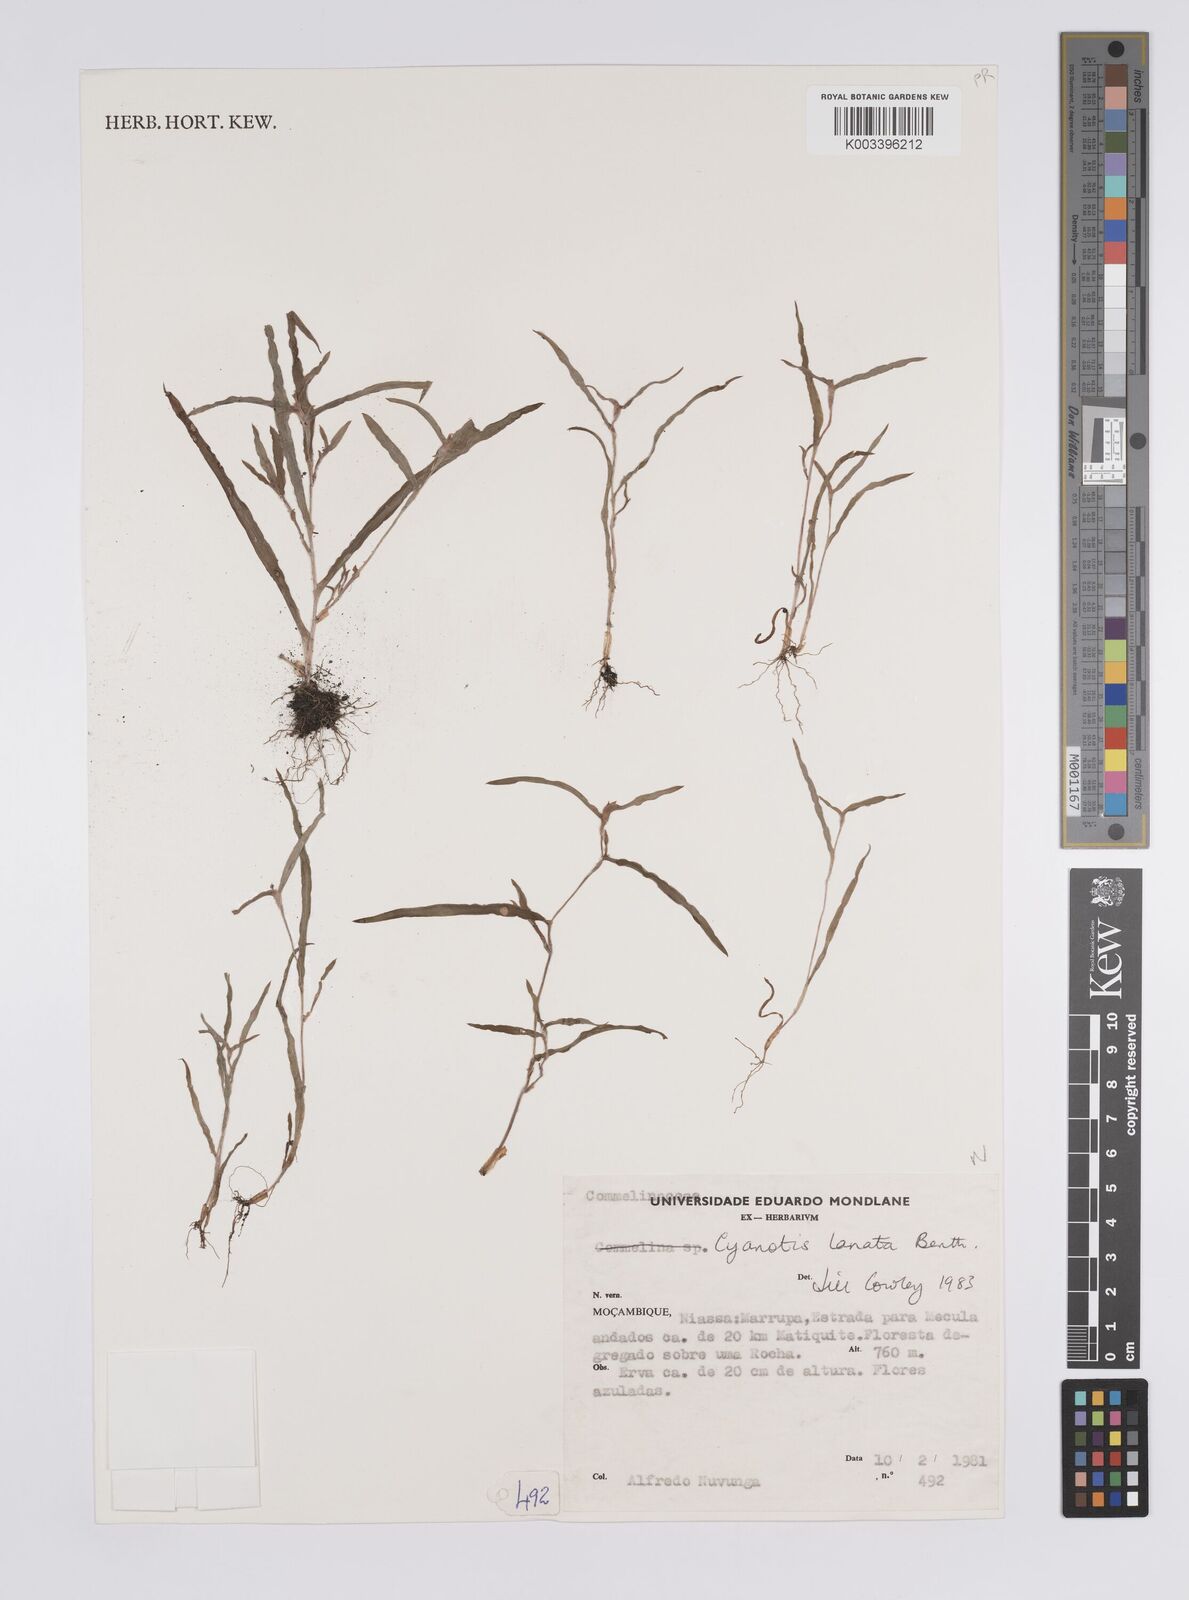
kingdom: Plantae
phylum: Tracheophyta
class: Liliopsida
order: Commelinales
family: Commelinaceae
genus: Cyanotis
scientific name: Cyanotis lanata
